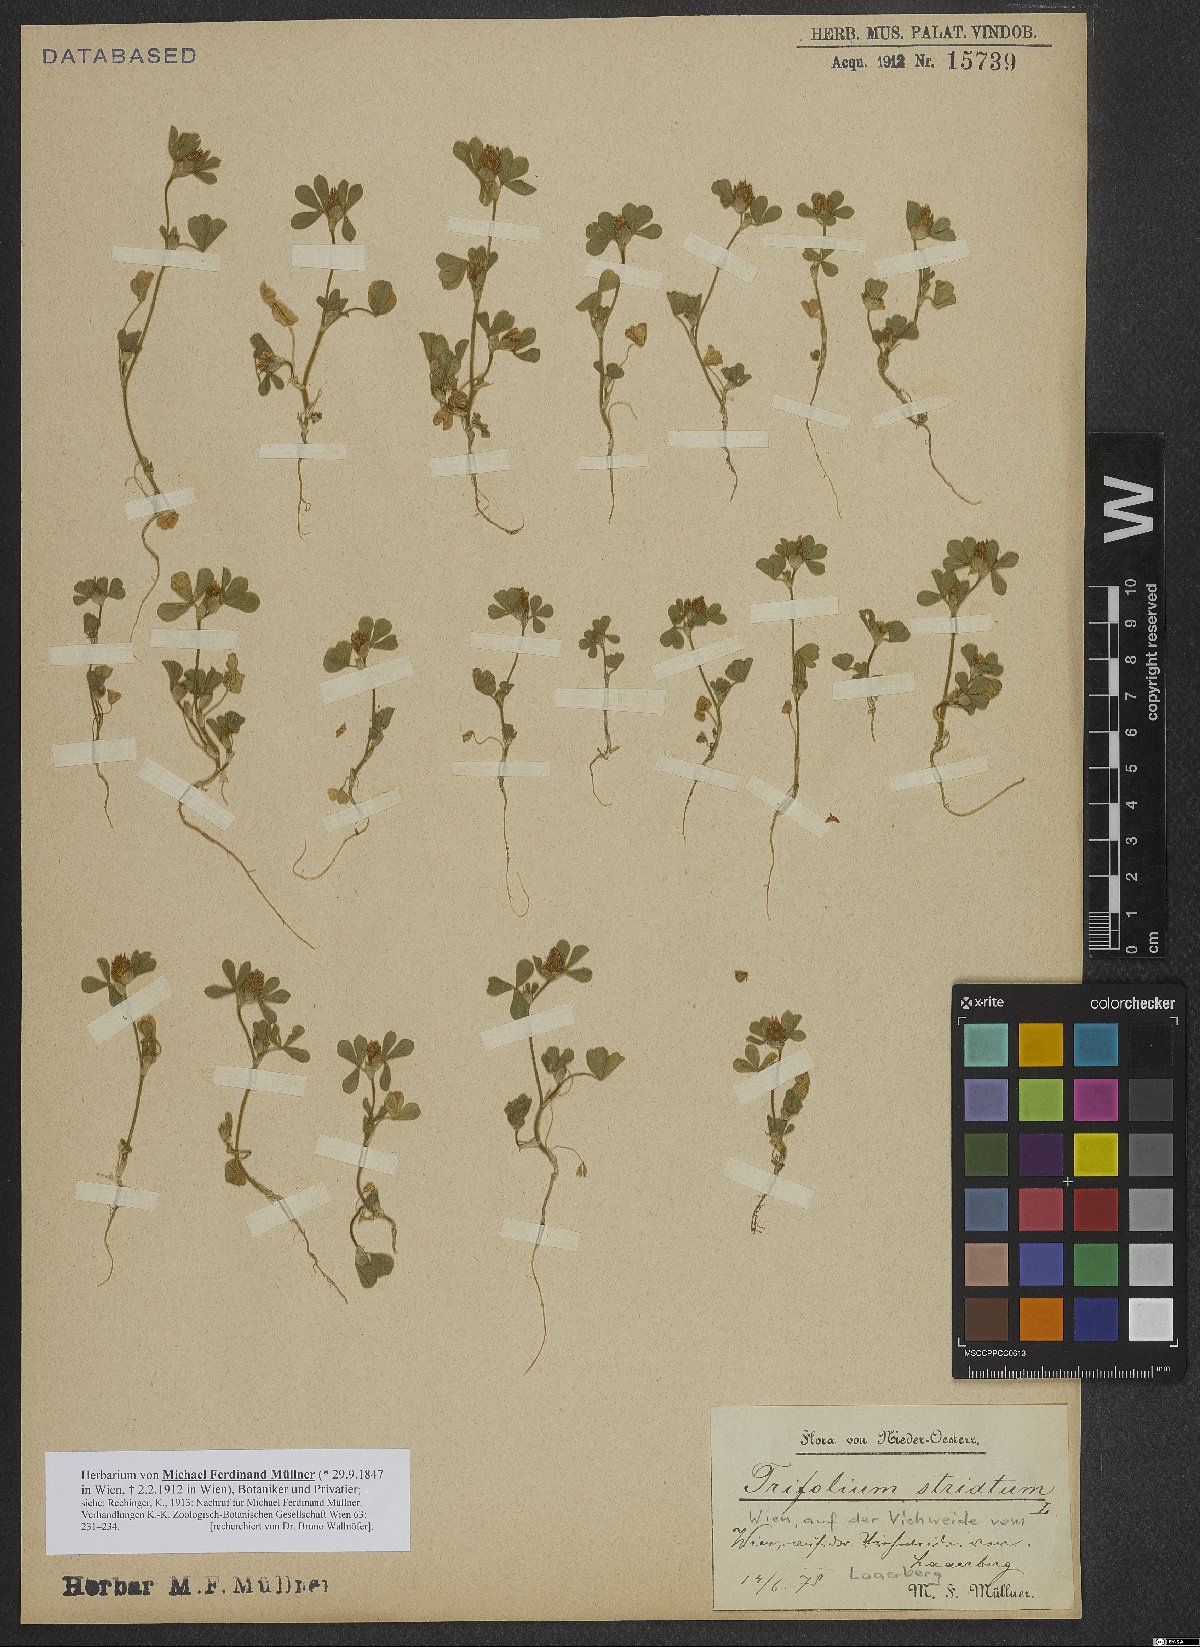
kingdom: Plantae
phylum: Tracheophyta
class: Magnoliopsida
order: Fabales
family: Fabaceae
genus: Trifolium
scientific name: Trifolium striatum
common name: Knotted clover
